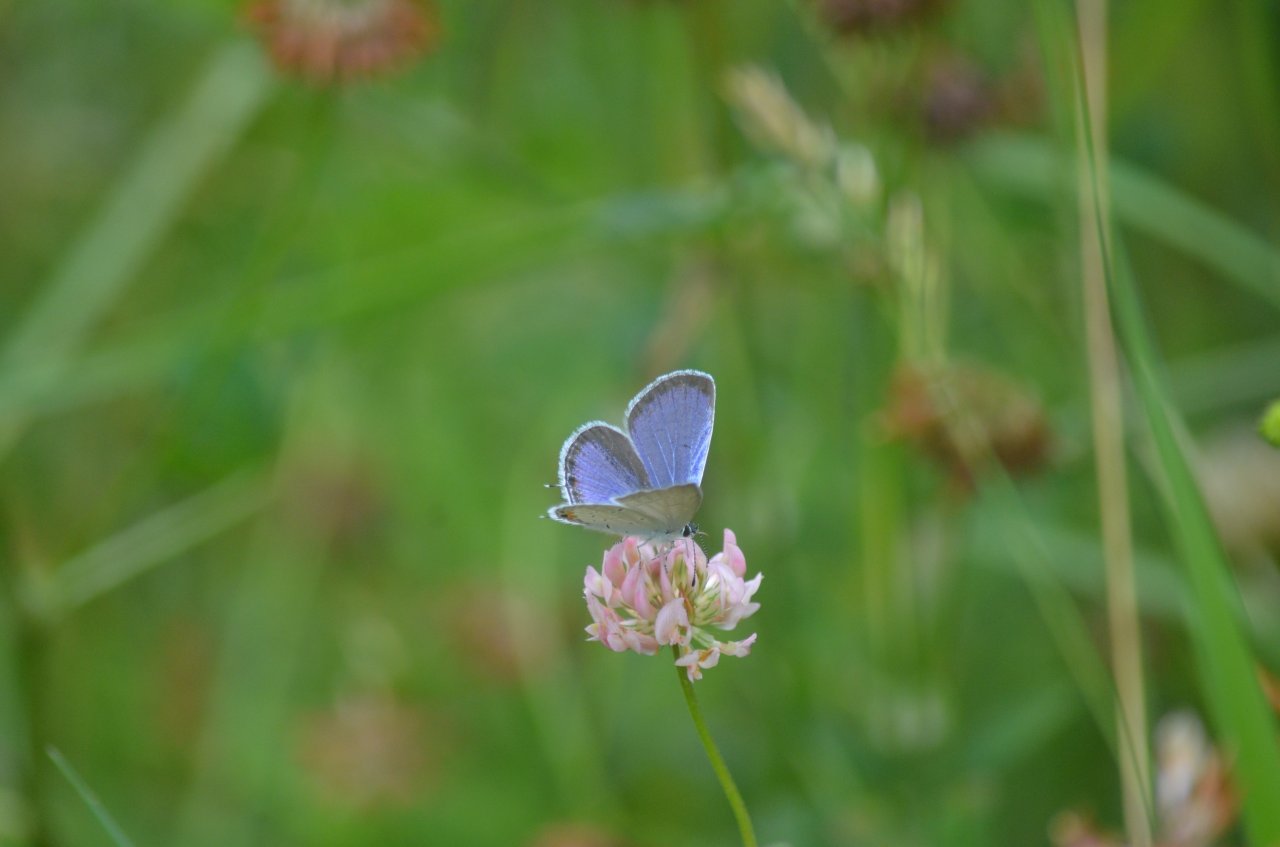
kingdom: Animalia
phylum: Arthropoda
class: Insecta
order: Lepidoptera
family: Lycaenidae
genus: Elkalyce
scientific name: Elkalyce comyntas
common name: Eastern Tailed-Blue
